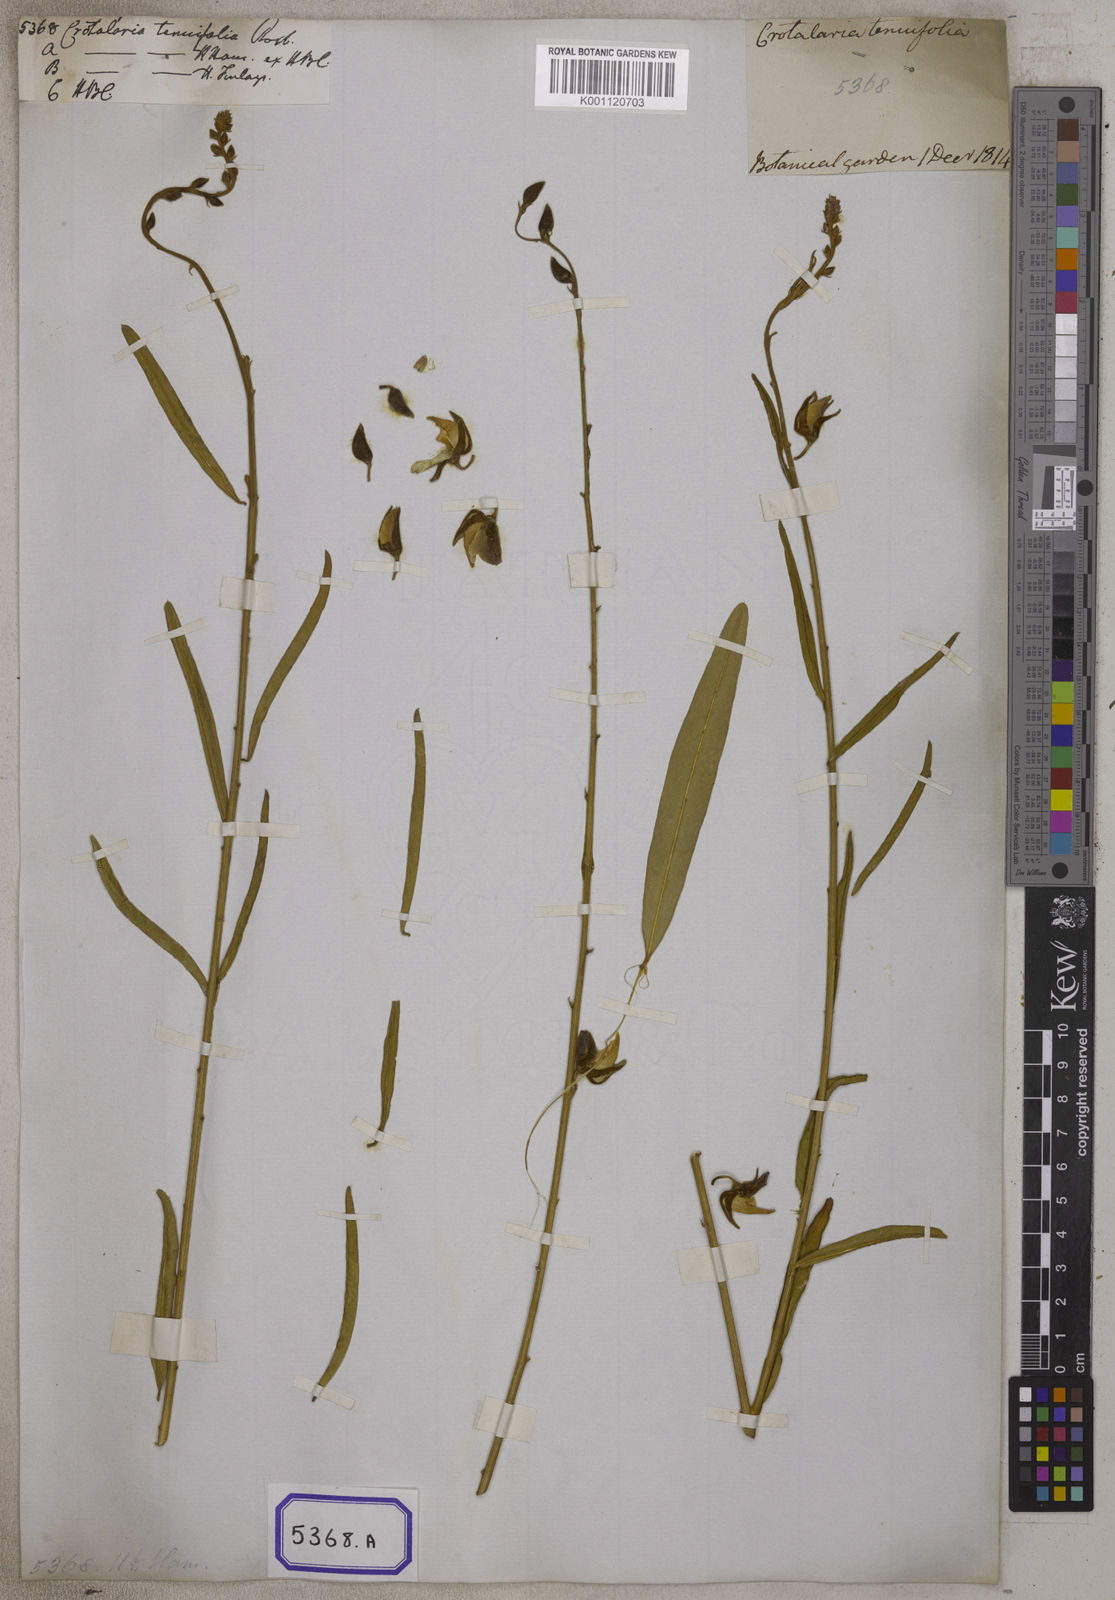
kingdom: Plantae
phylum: Tracheophyta
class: Magnoliopsida
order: Fabales
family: Fabaceae
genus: Crotalaria
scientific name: Crotalaria
